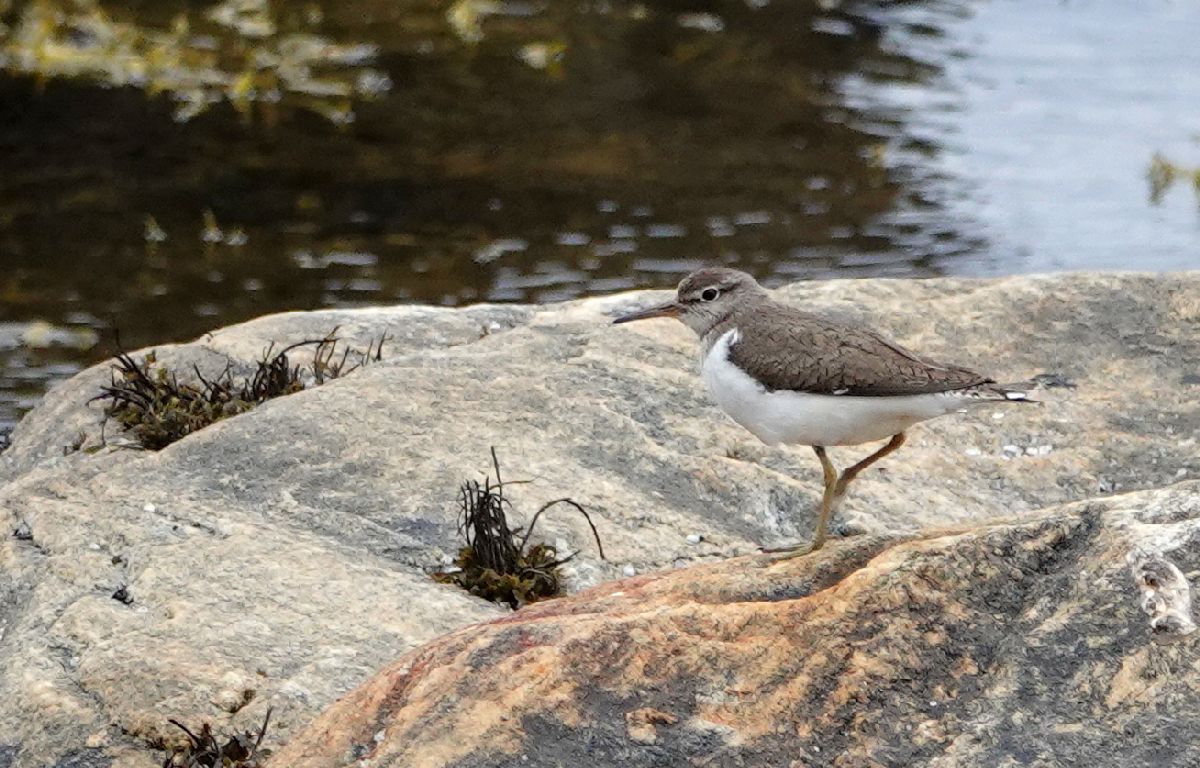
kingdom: Animalia
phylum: Chordata
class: Aves
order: Charadriiformes
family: Scolopacidae
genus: Actitis
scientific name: Actitis hypoleucos
